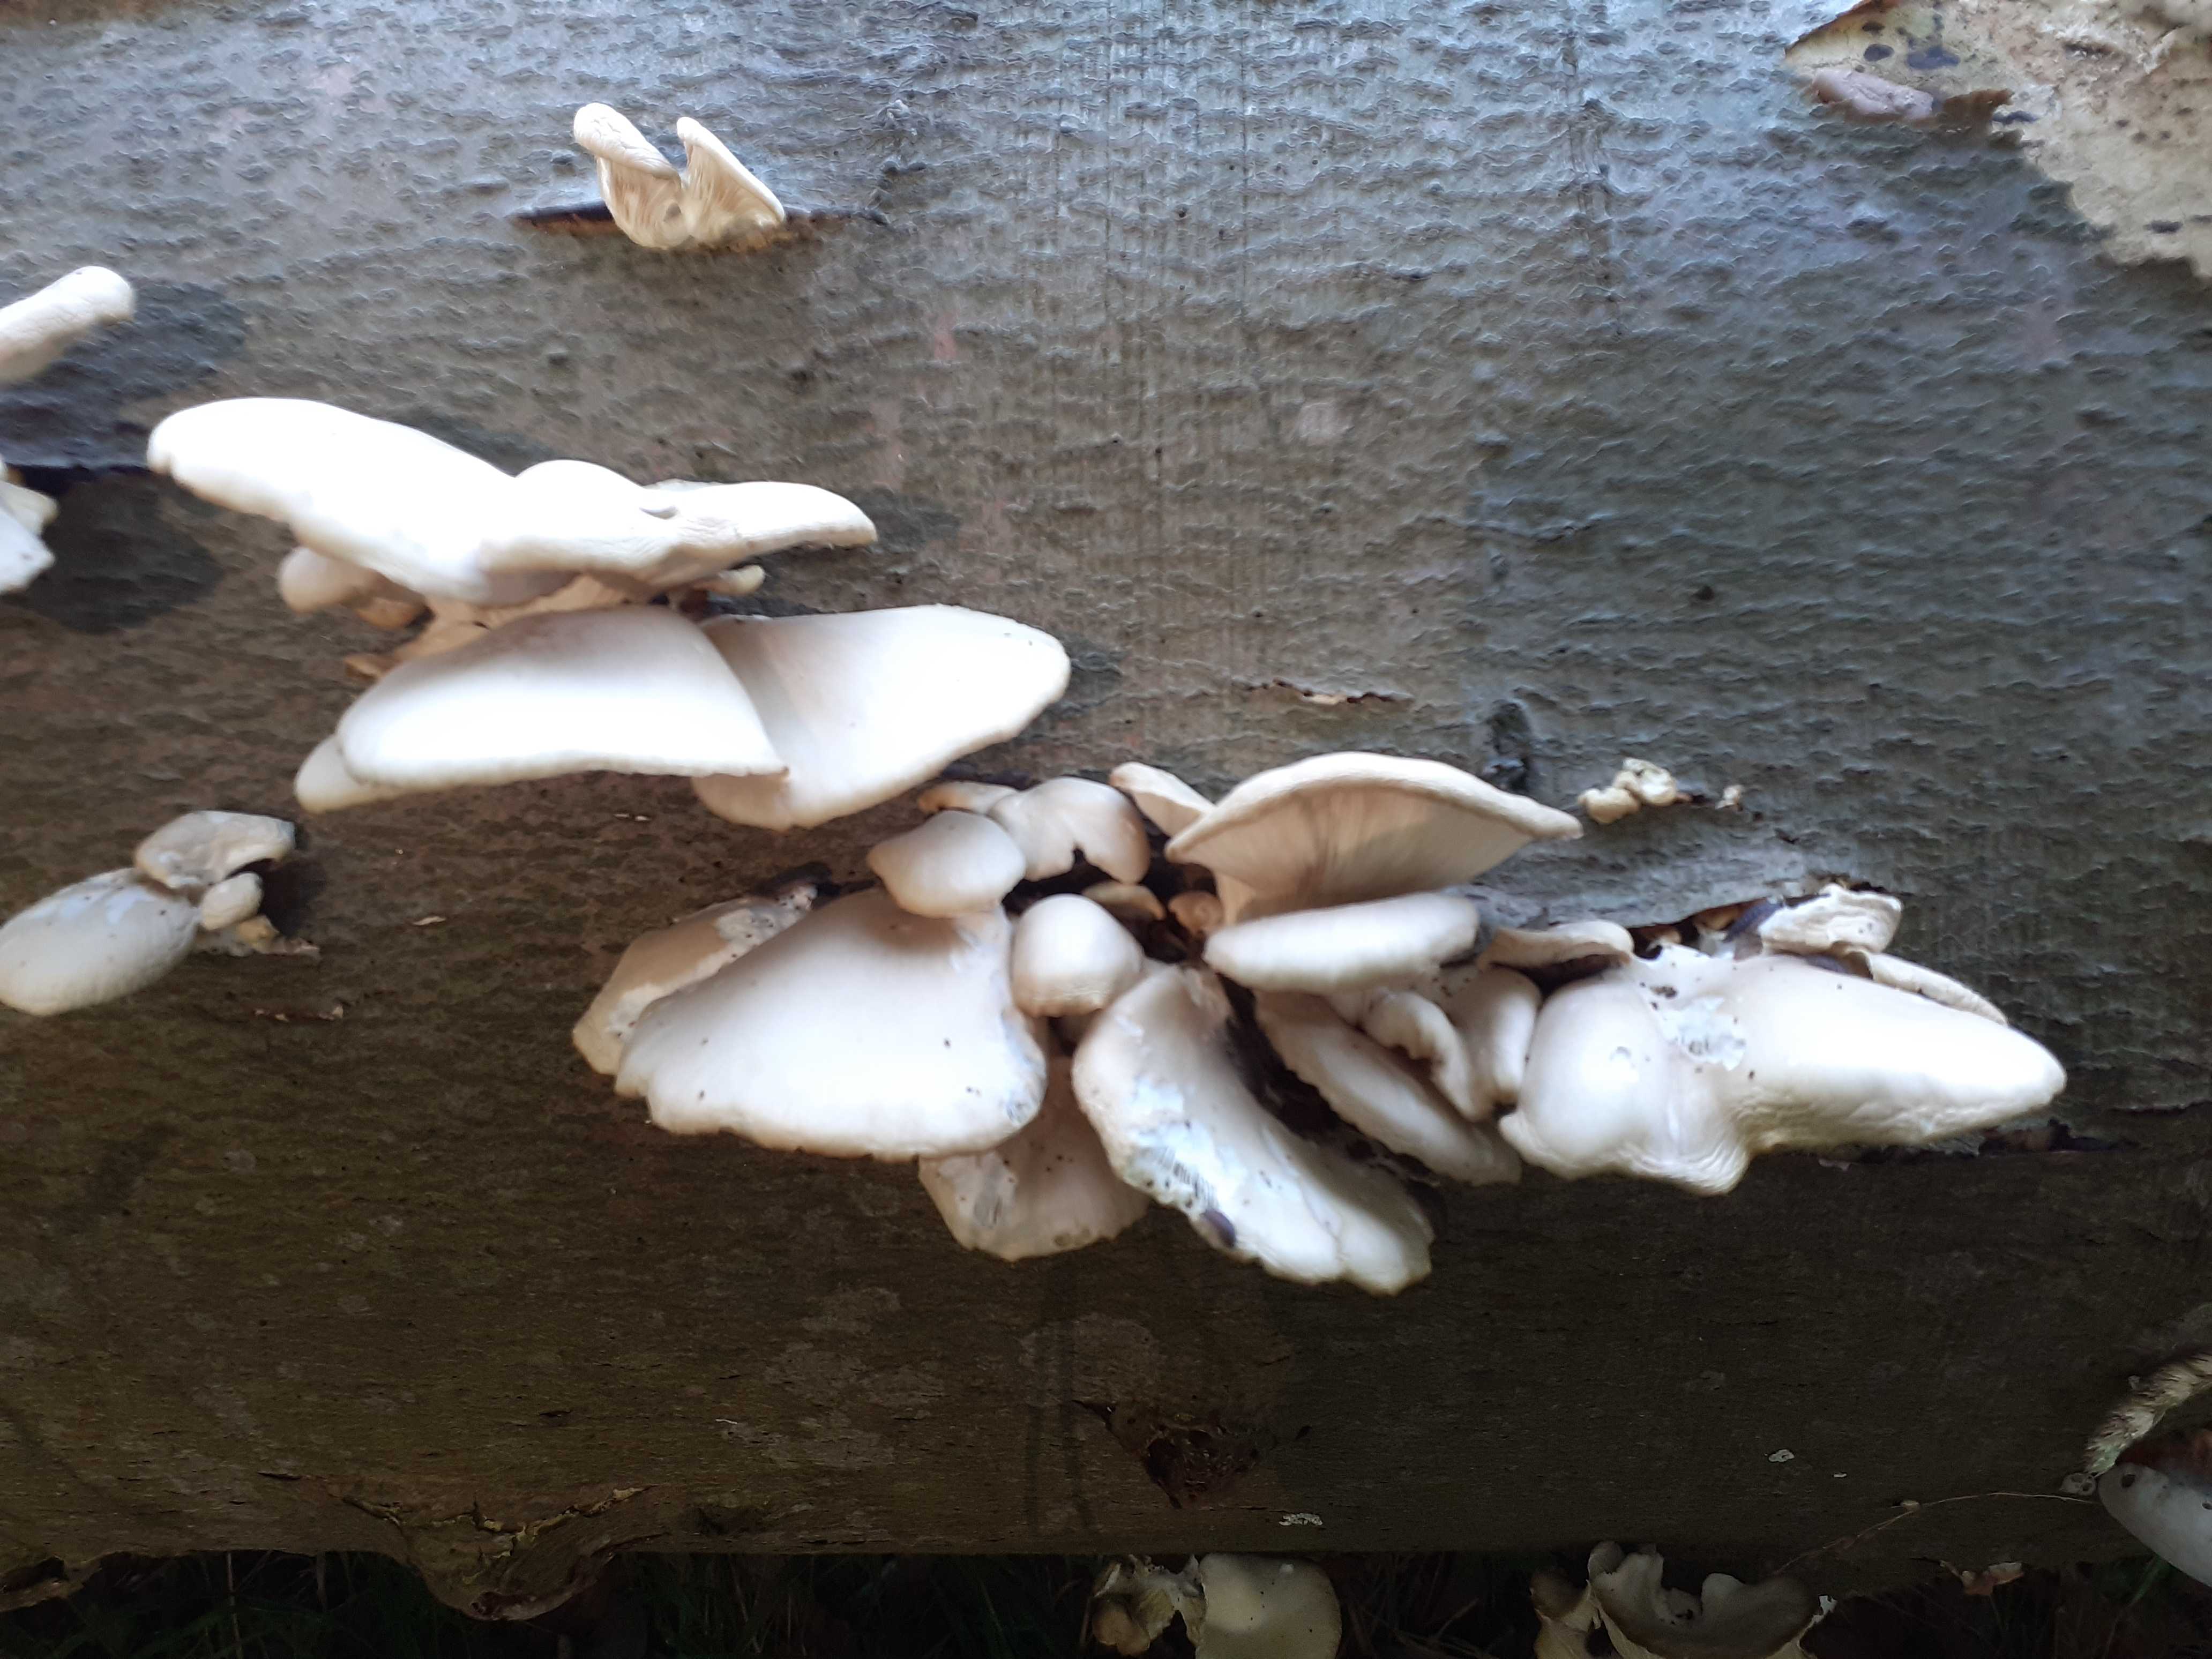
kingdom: Fungi
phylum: Basidiomycota
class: Agaricomycetes
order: Agaricales
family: Pleurotaceae
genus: Pleurotus
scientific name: Pleurotus pulmonarius
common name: sommer-østershat
